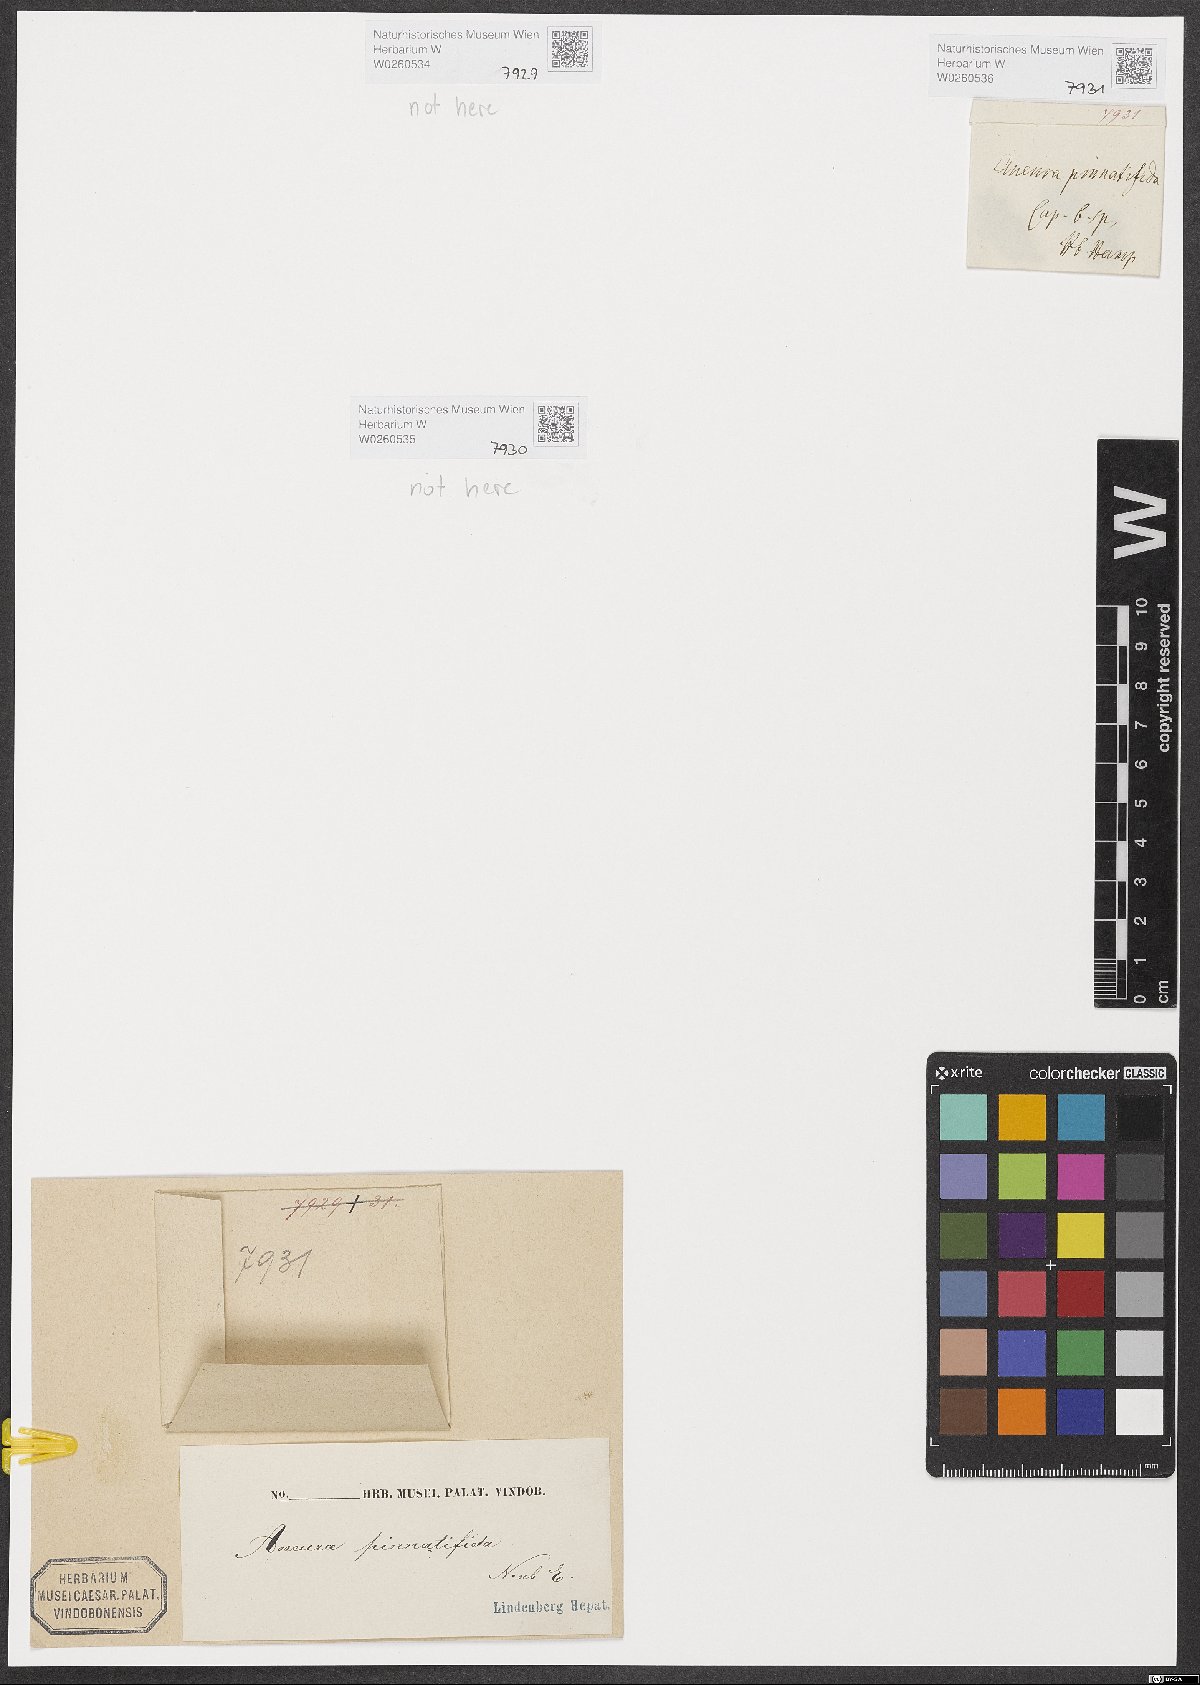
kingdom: Plantae
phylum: Marchantiophyta
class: Jungermanniopsida
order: Metzgeriales
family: Aneuraceae
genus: Riccardia
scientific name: Riccardia chamedryfolia
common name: Jagged germanderwort
